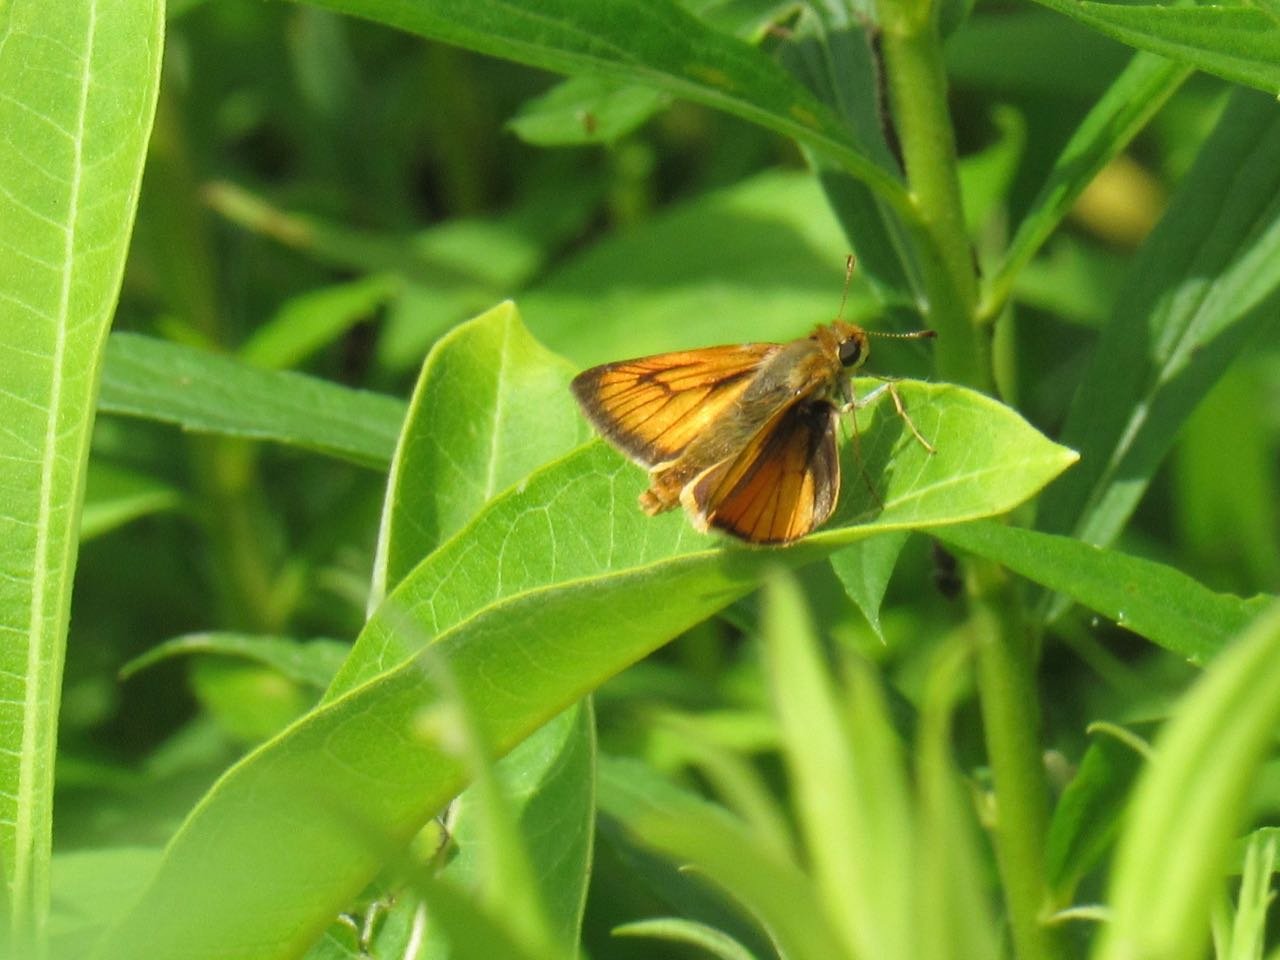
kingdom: Animalia
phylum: Arthropoda
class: Insecta
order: Lepidoptera
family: Hesperiidae
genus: Atrytone
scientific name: Atrytone delaware
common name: Delaware Skipper
